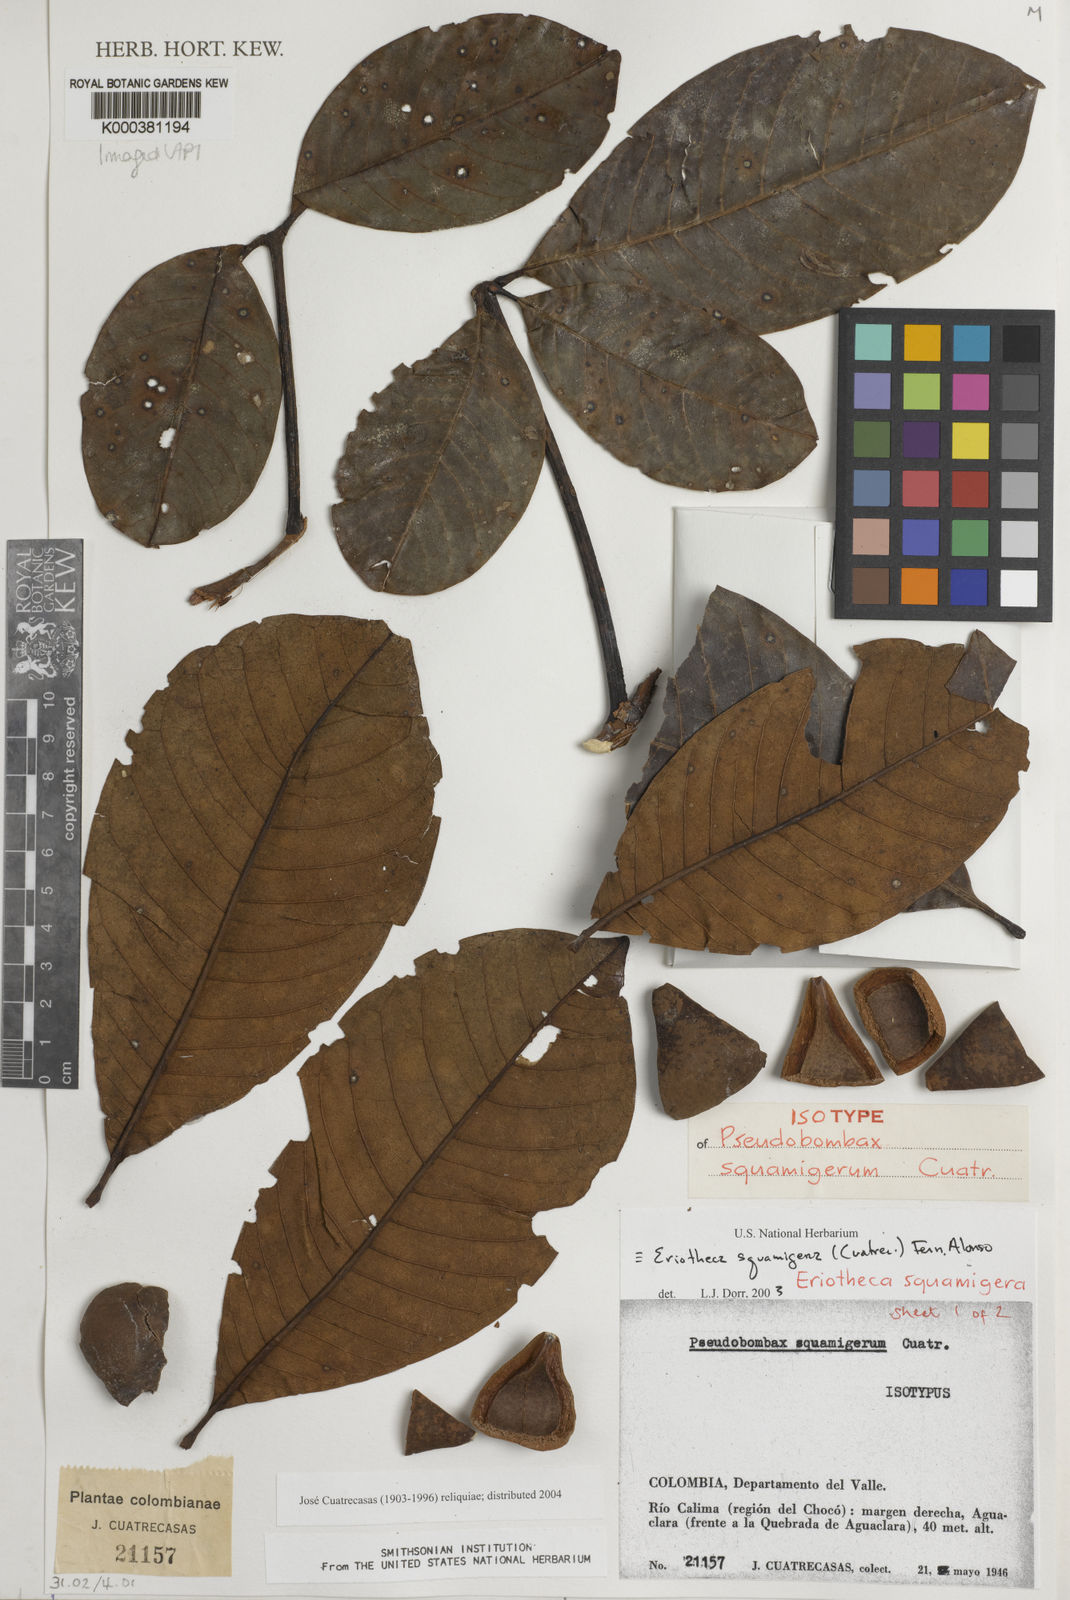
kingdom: Plantae
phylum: Tracheophyta
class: Magnoliopsida
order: Malvales
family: Malvaceae
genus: Eriotheca
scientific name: Eriotheca squamigera
